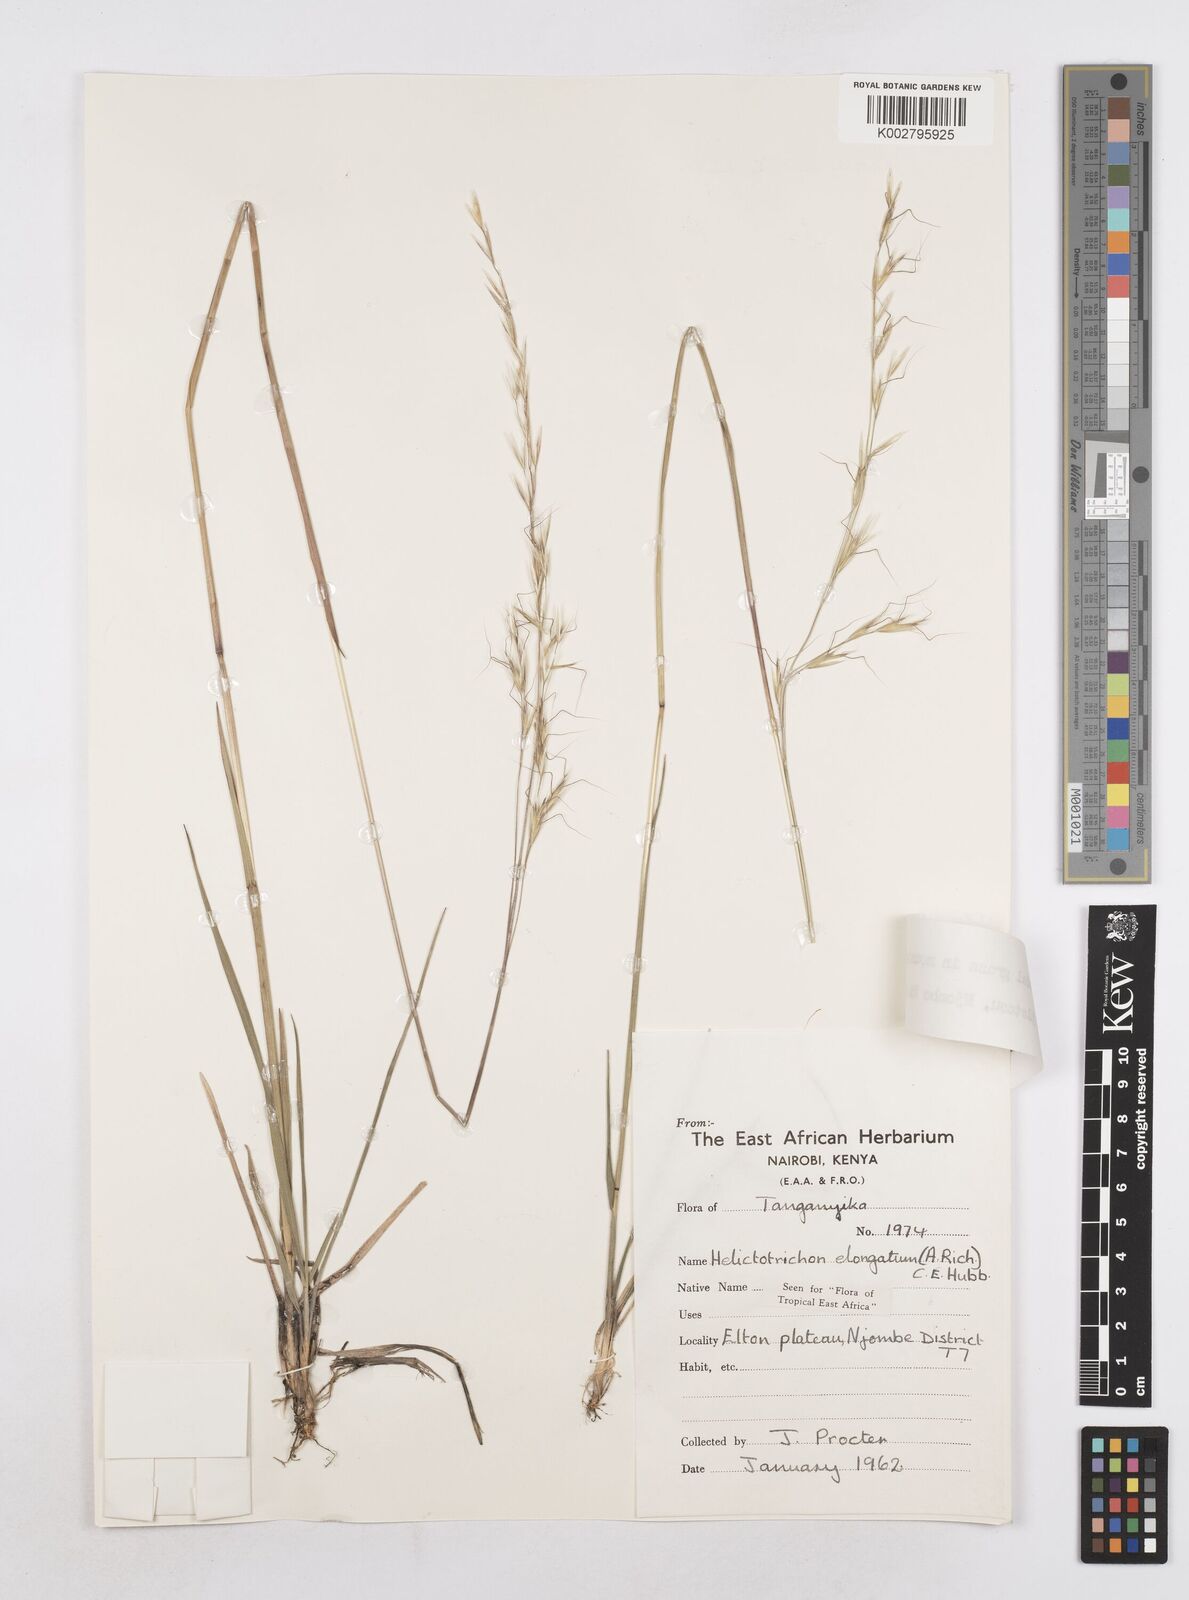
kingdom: Plantae
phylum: Tracheophyta
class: Liliopsida
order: Poales
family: Poaceae
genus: Trisetopsis
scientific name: Trisetopsis elongata
